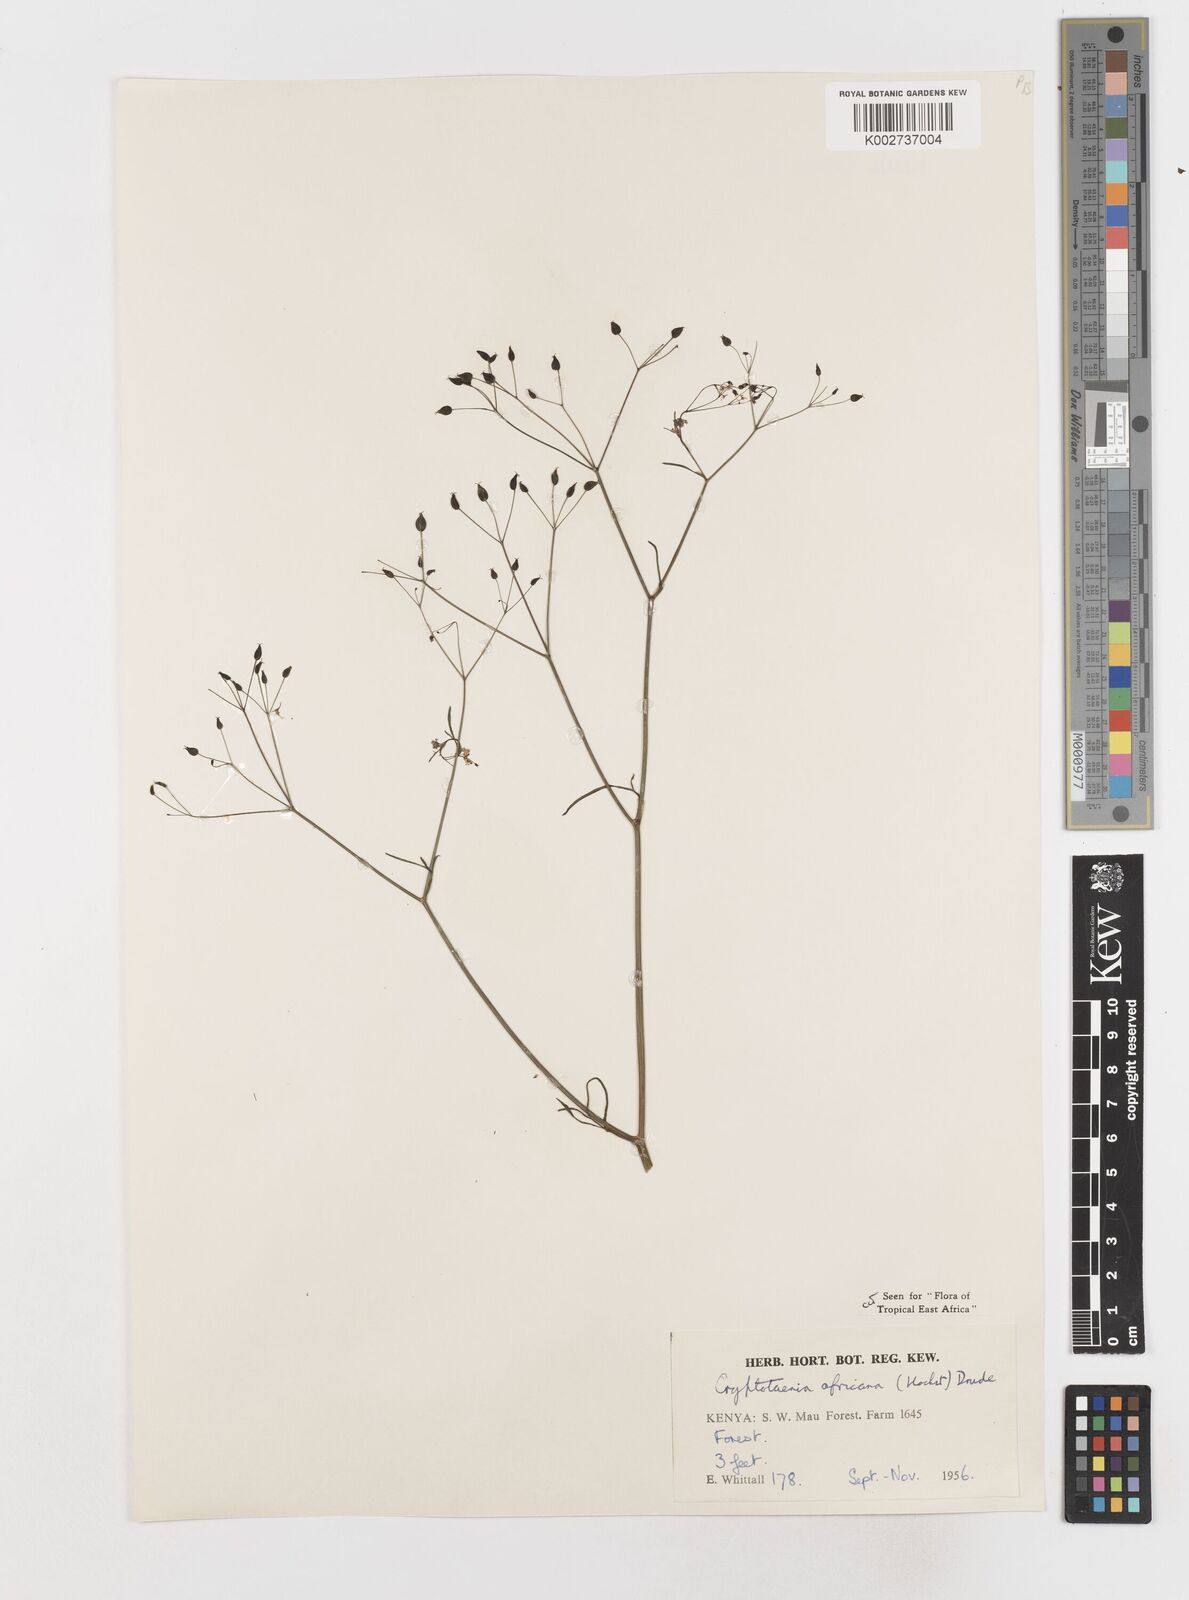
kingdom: Plantae
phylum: Tracheophyta
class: Magnoliopsida
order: Apiales
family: Apiaceae
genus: Cryptotaenia
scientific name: Cryptotaenia africana
